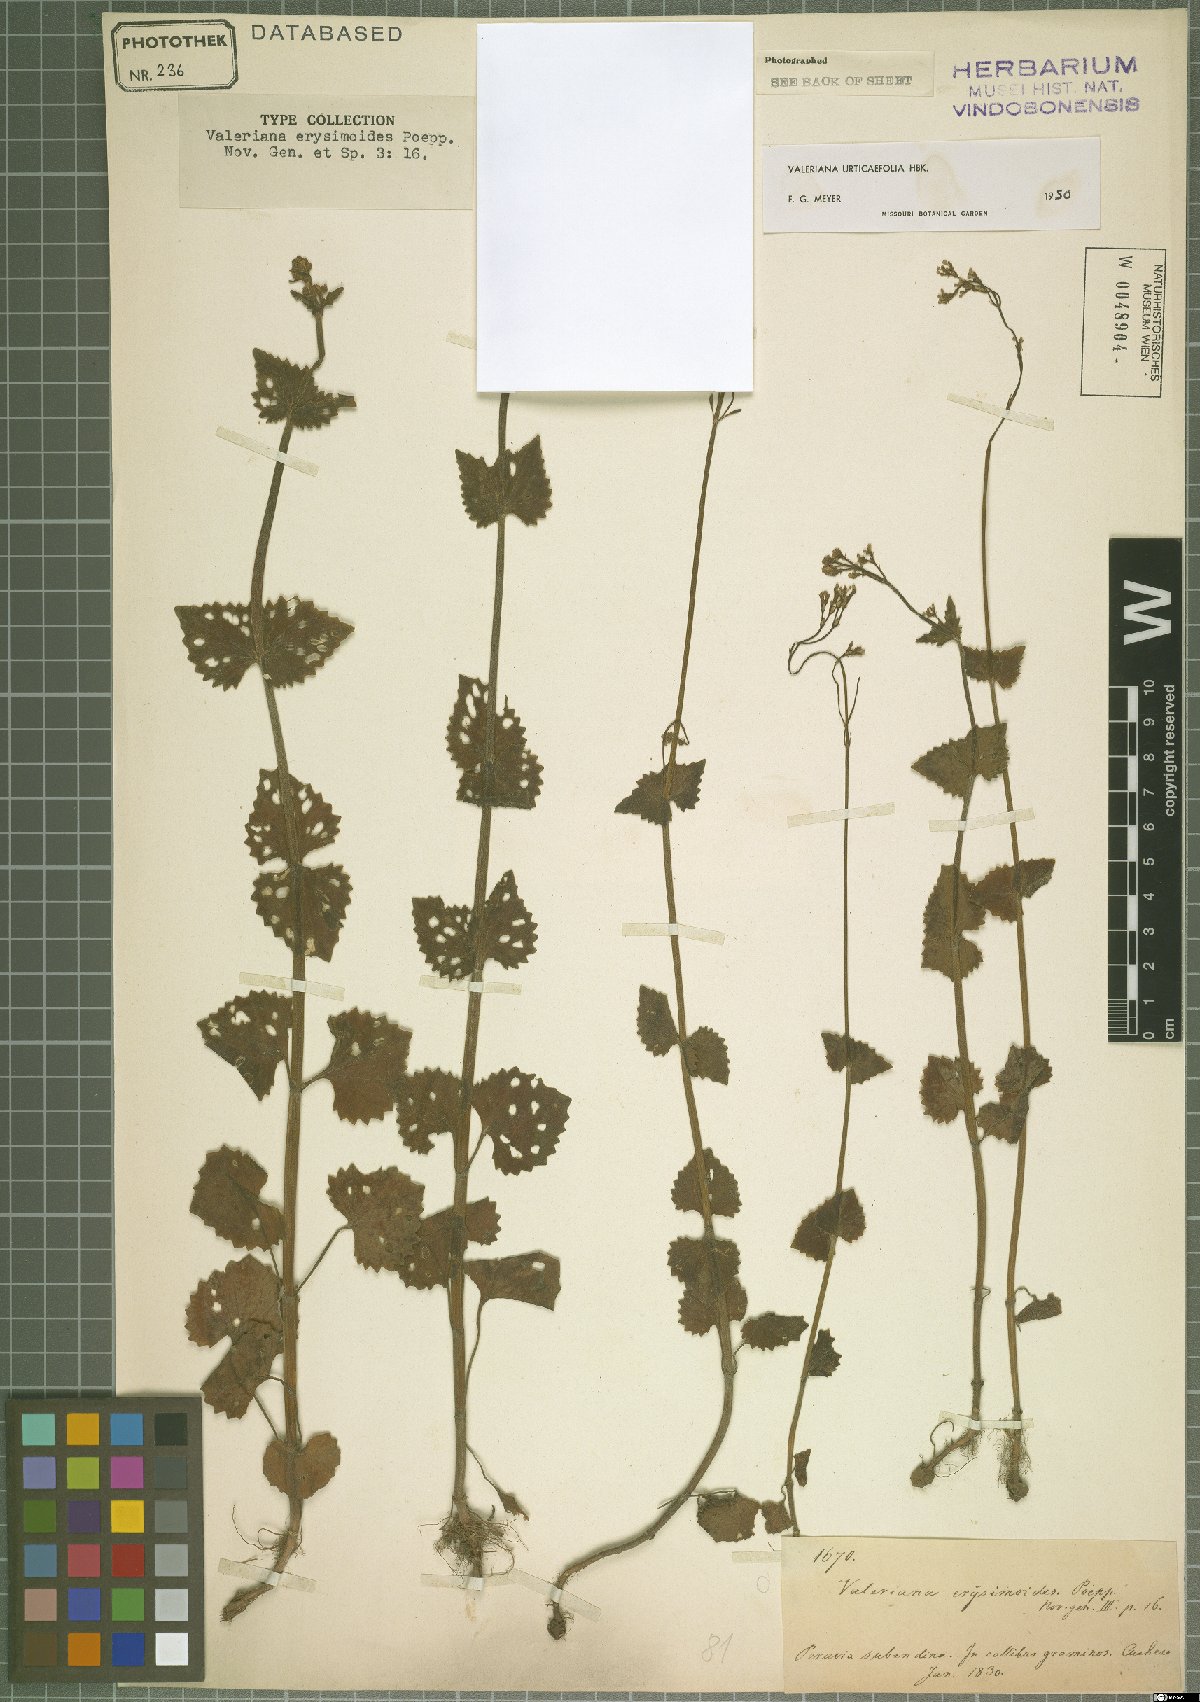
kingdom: Plantae
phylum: Tracheophyta
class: Magnoliopsida
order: Dipsacales
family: Caprifoliaceae
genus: Valeriana
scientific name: Valeriana urticifolia
